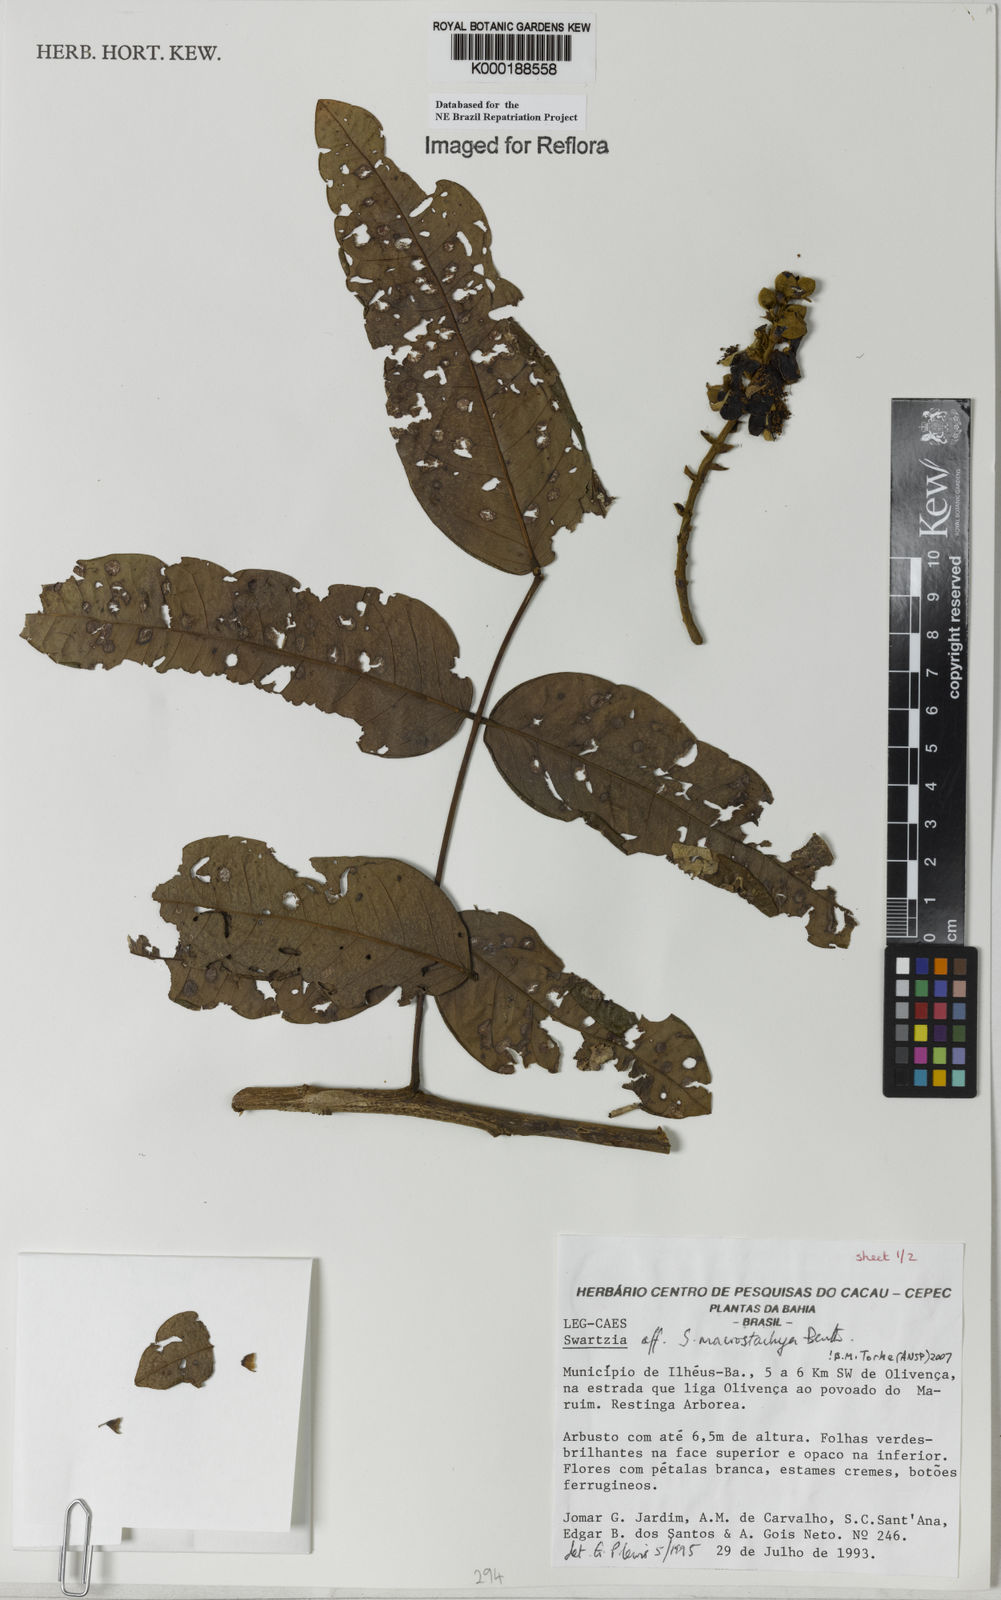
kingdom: Plantae
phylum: Tracheophyta
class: Magnoliopsida
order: Fabales
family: Fabaceae
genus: Swartzia
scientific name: Swartzia
